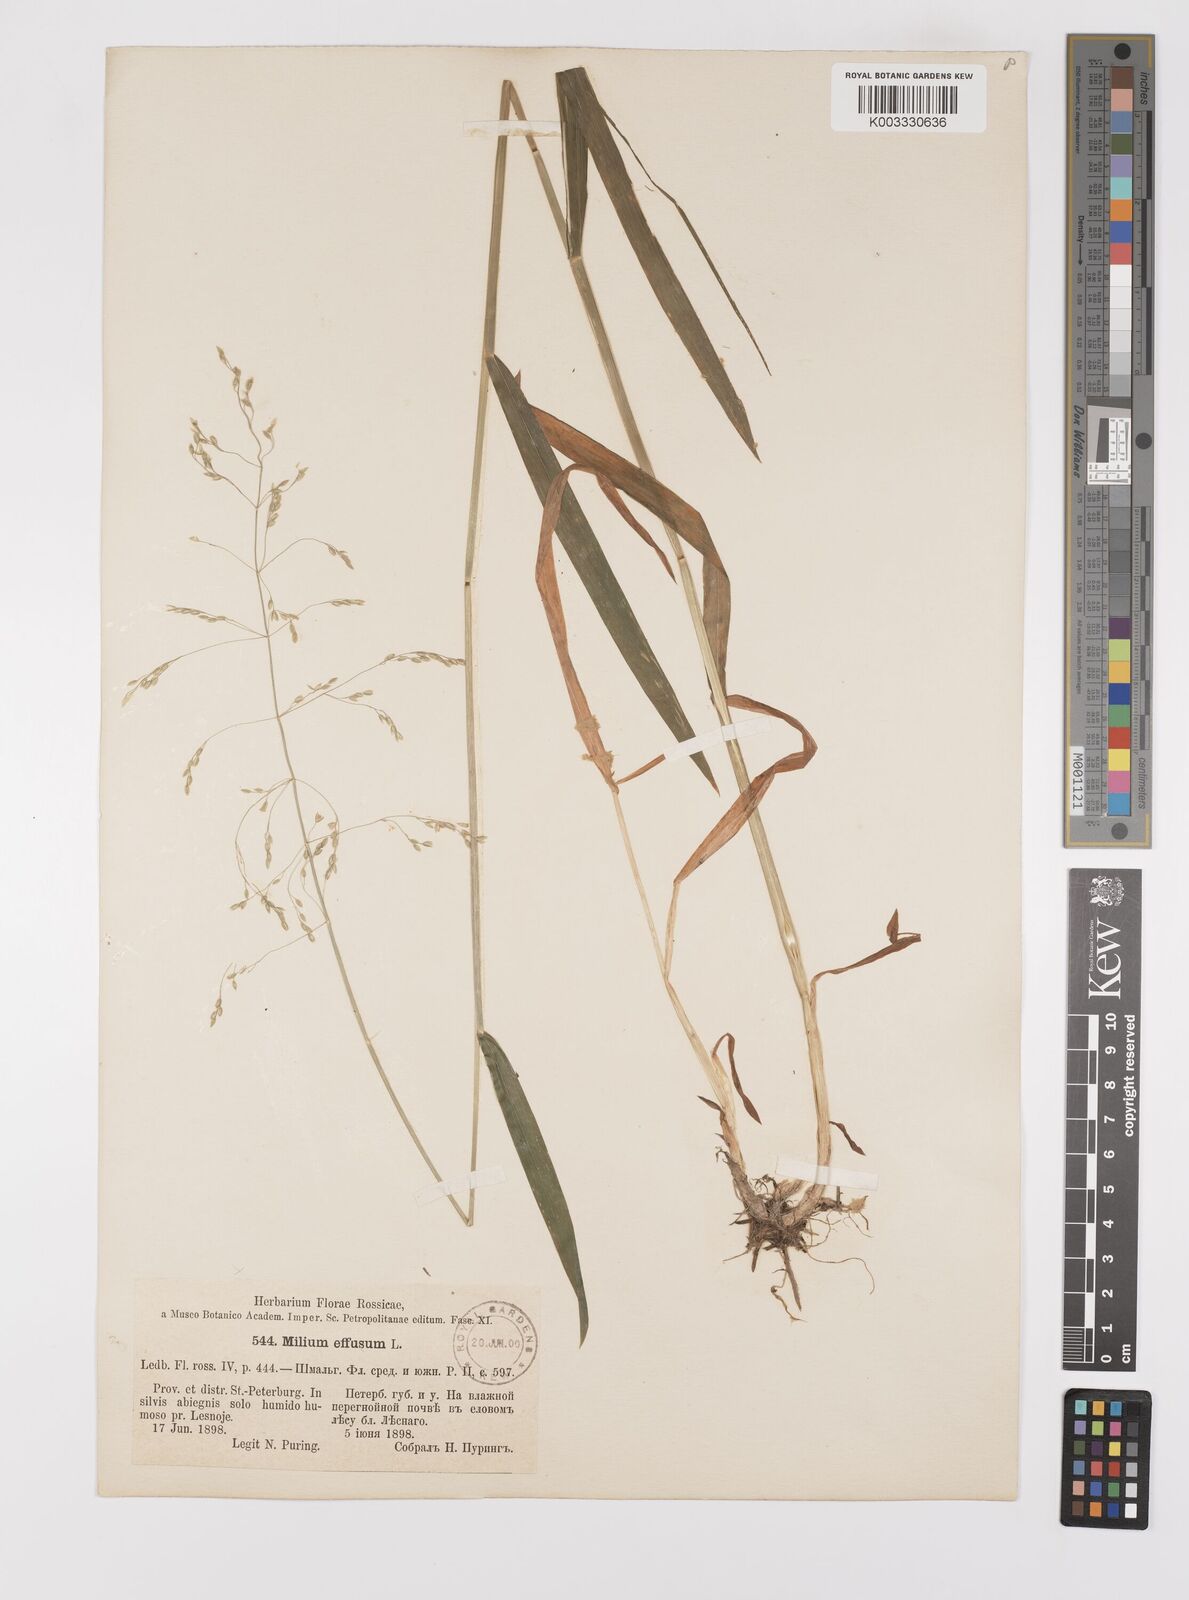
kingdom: Plantae
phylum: Tracheophyta
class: Liliopsida
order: Poales
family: Poaceae
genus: Milium
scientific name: Milium effusum
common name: Wood millet
